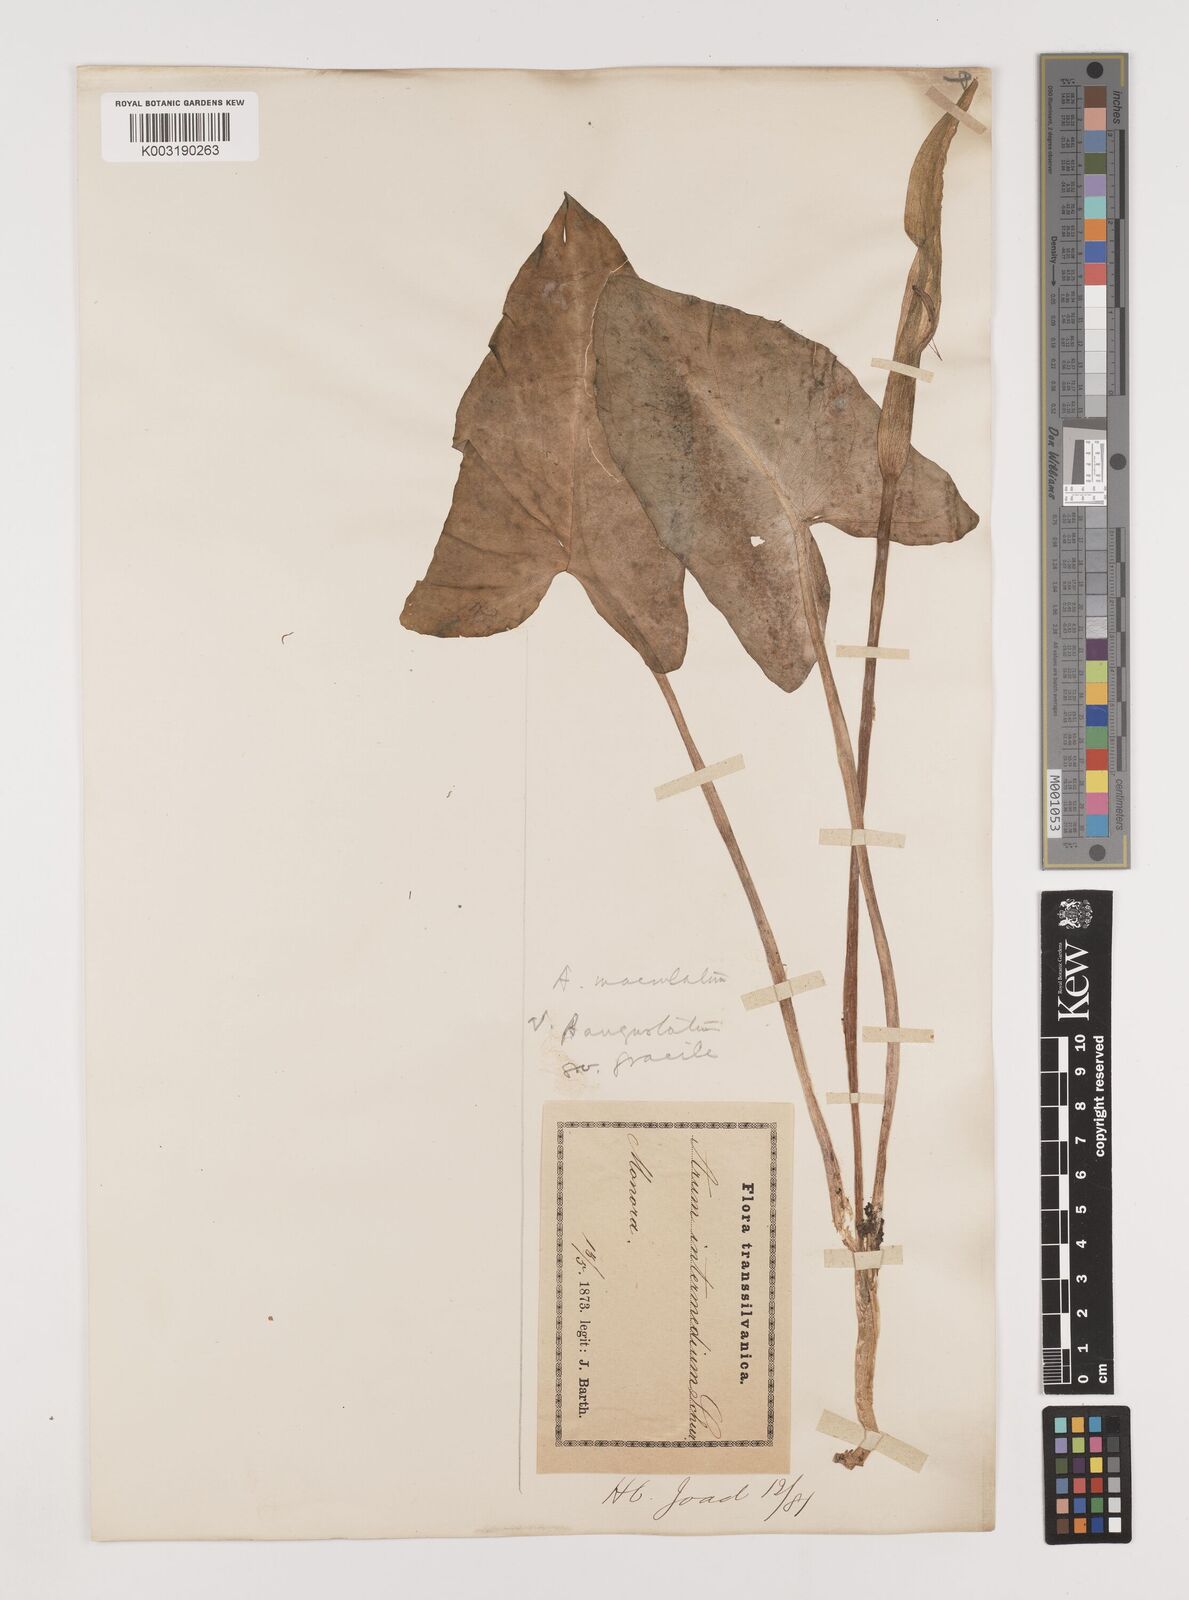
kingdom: Plantae
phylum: Tracheophyta
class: Liliopsida
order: Alismatales
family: Araceae
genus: Arum
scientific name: Arum cylindraceum
